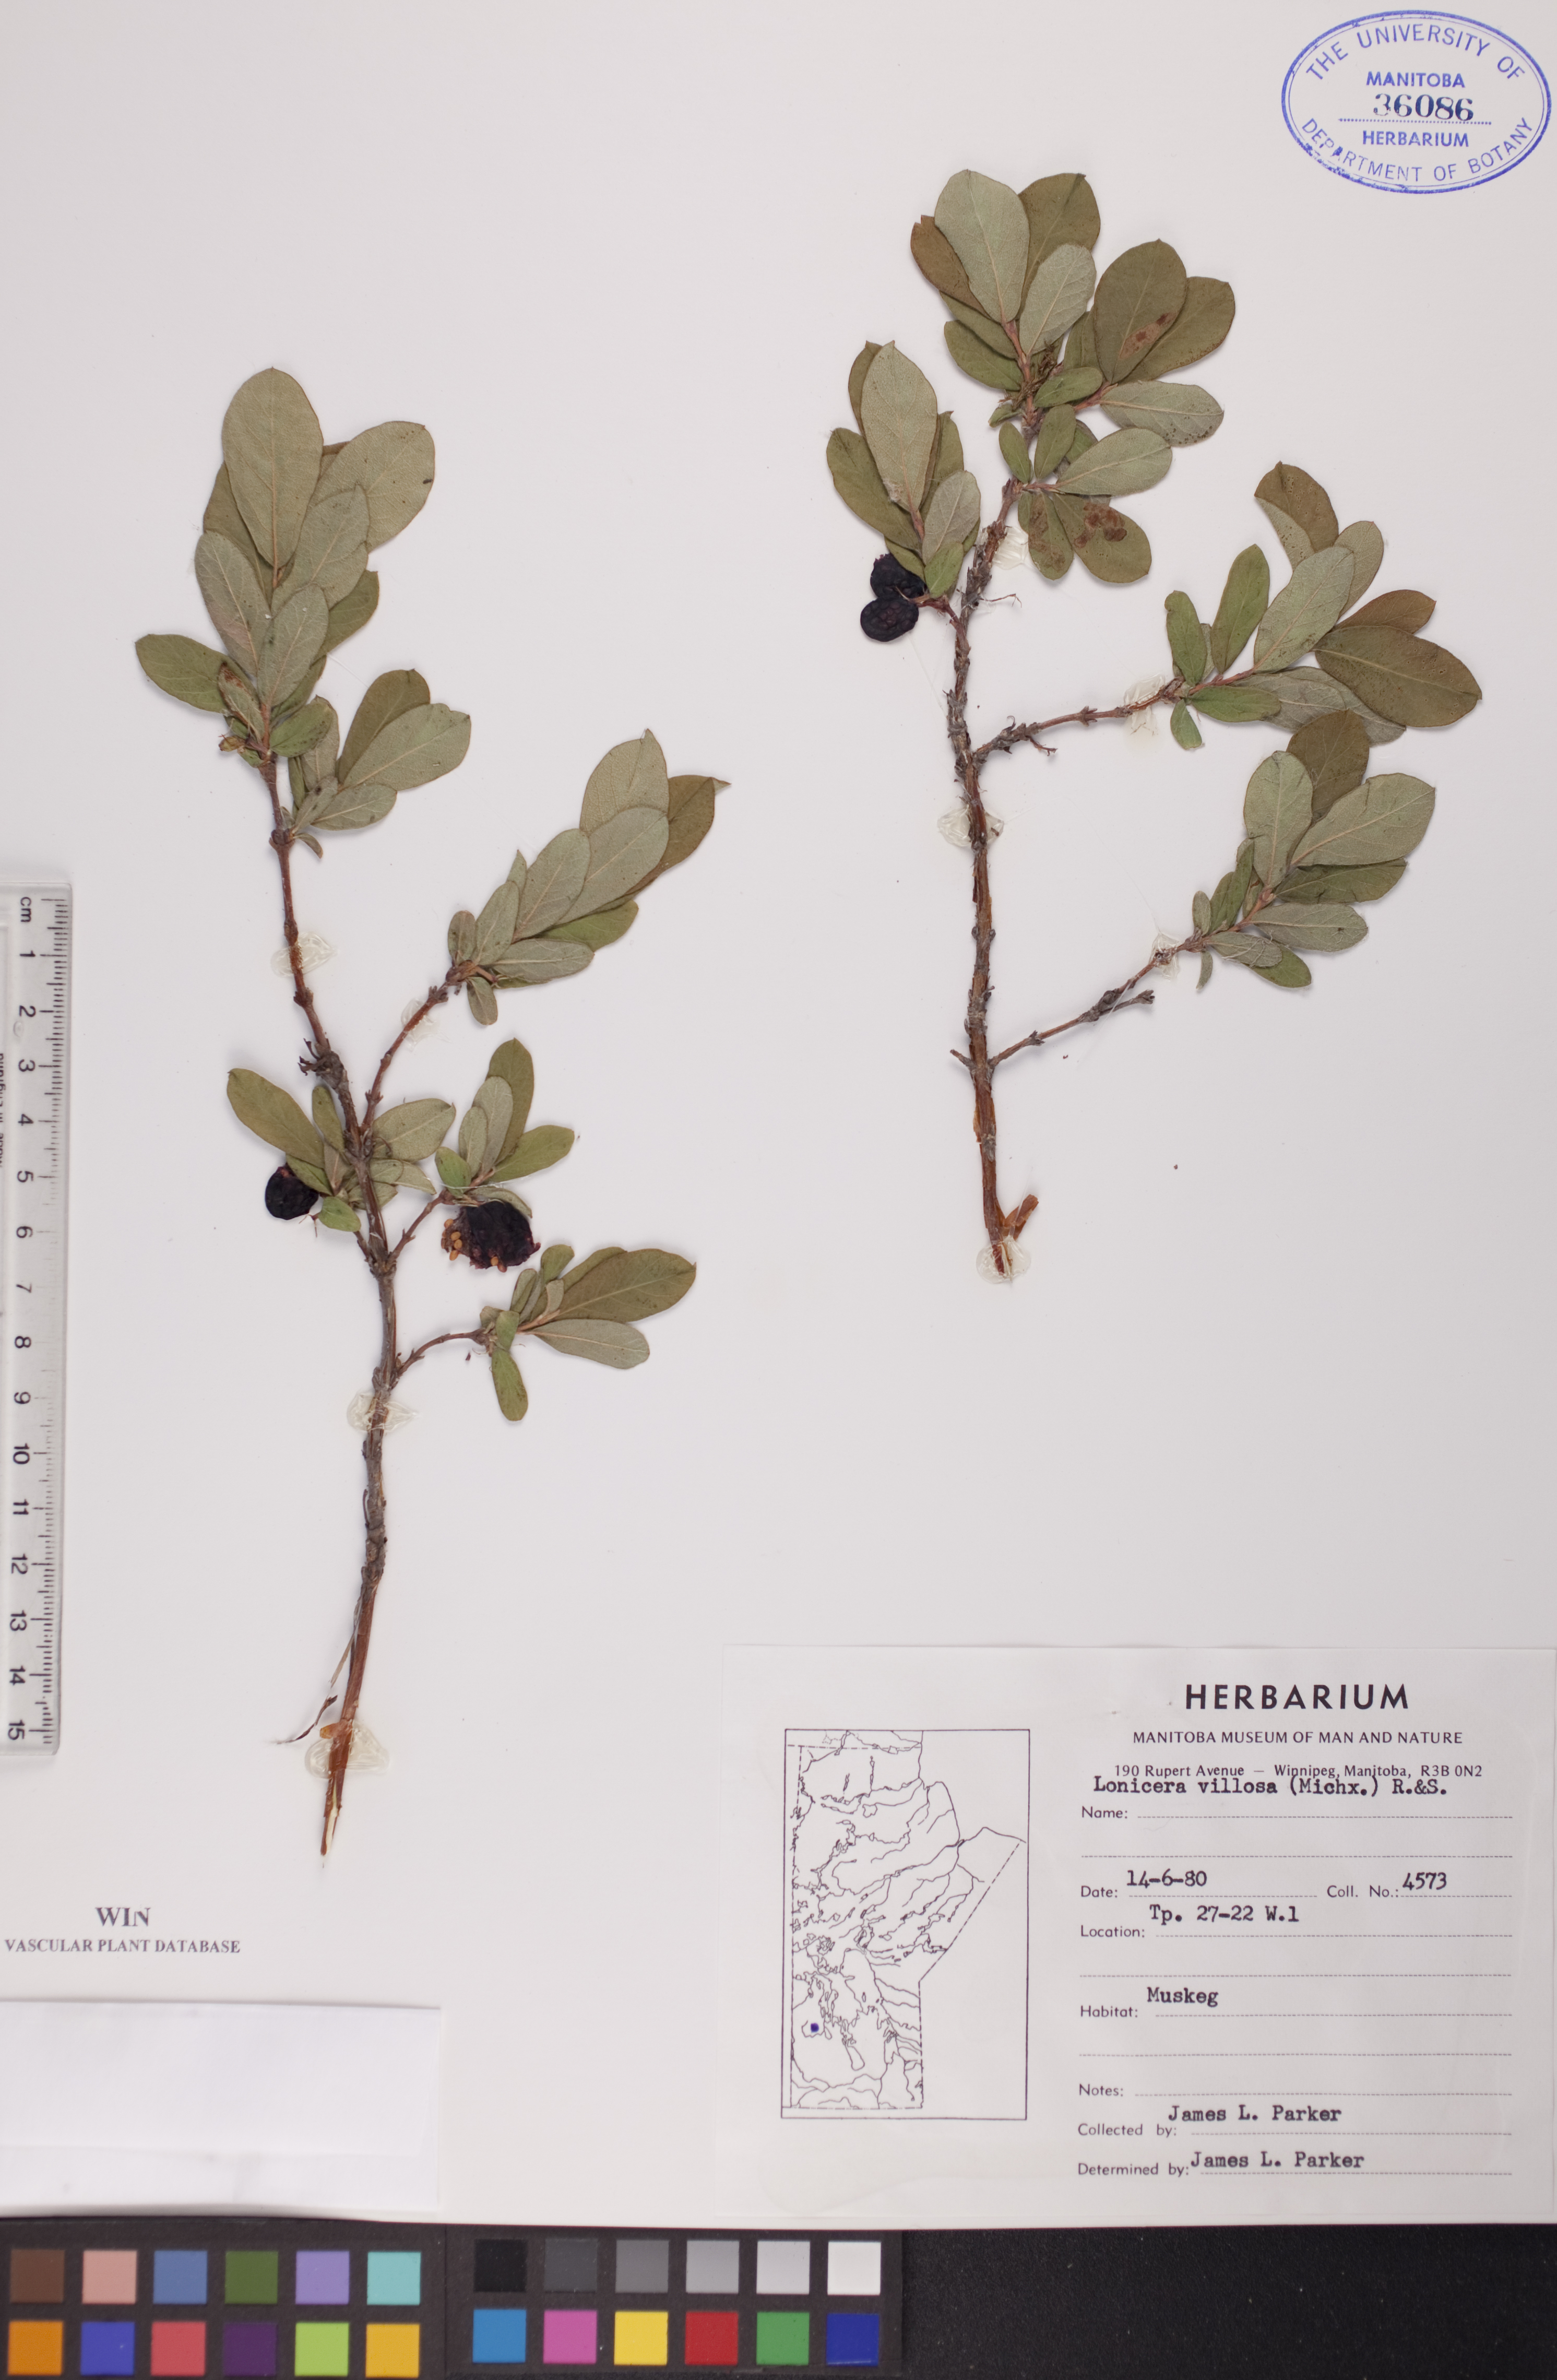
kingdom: Plantae
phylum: Tracheophyta
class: Magnoliopsida
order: Dipsacales
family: Caprifoliaceae
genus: Lonicera
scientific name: Lonicera villosa
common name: Mountain fly-honeysuckle
